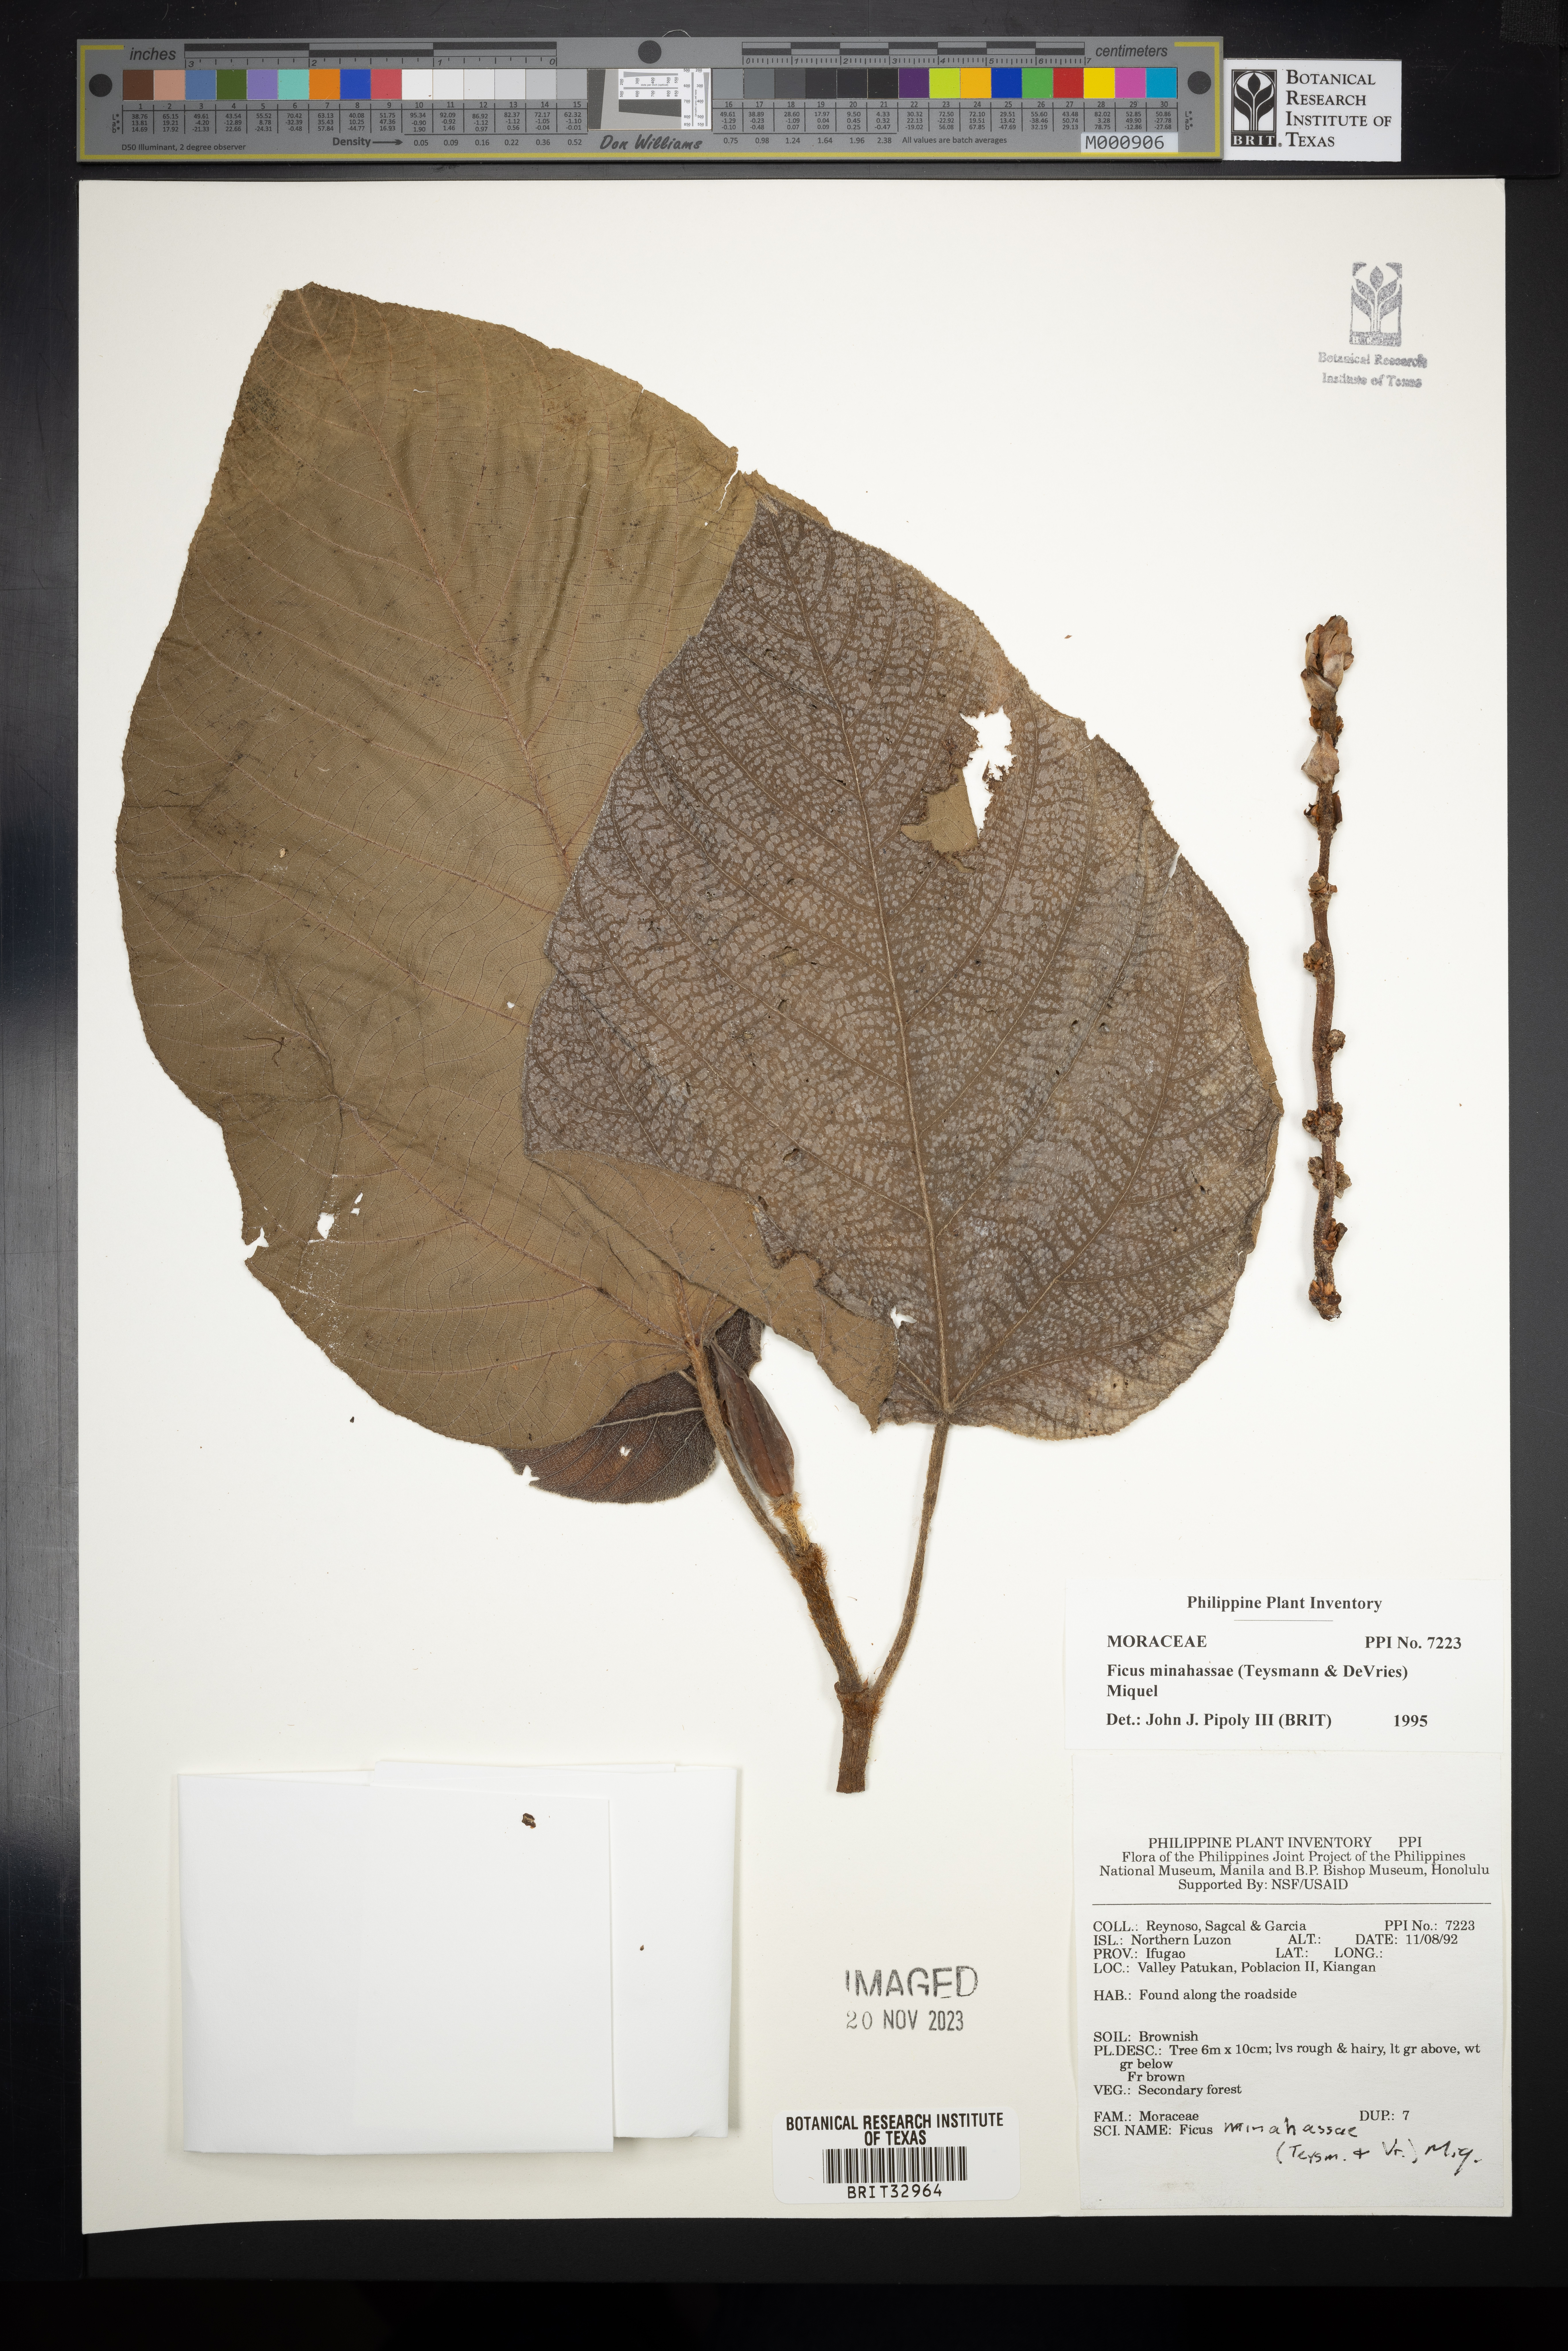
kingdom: Plantae
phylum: Tracheophyta
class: Magnoliopsida
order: Rosales
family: Moraceae
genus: Ficus
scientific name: Ficus minahassae
